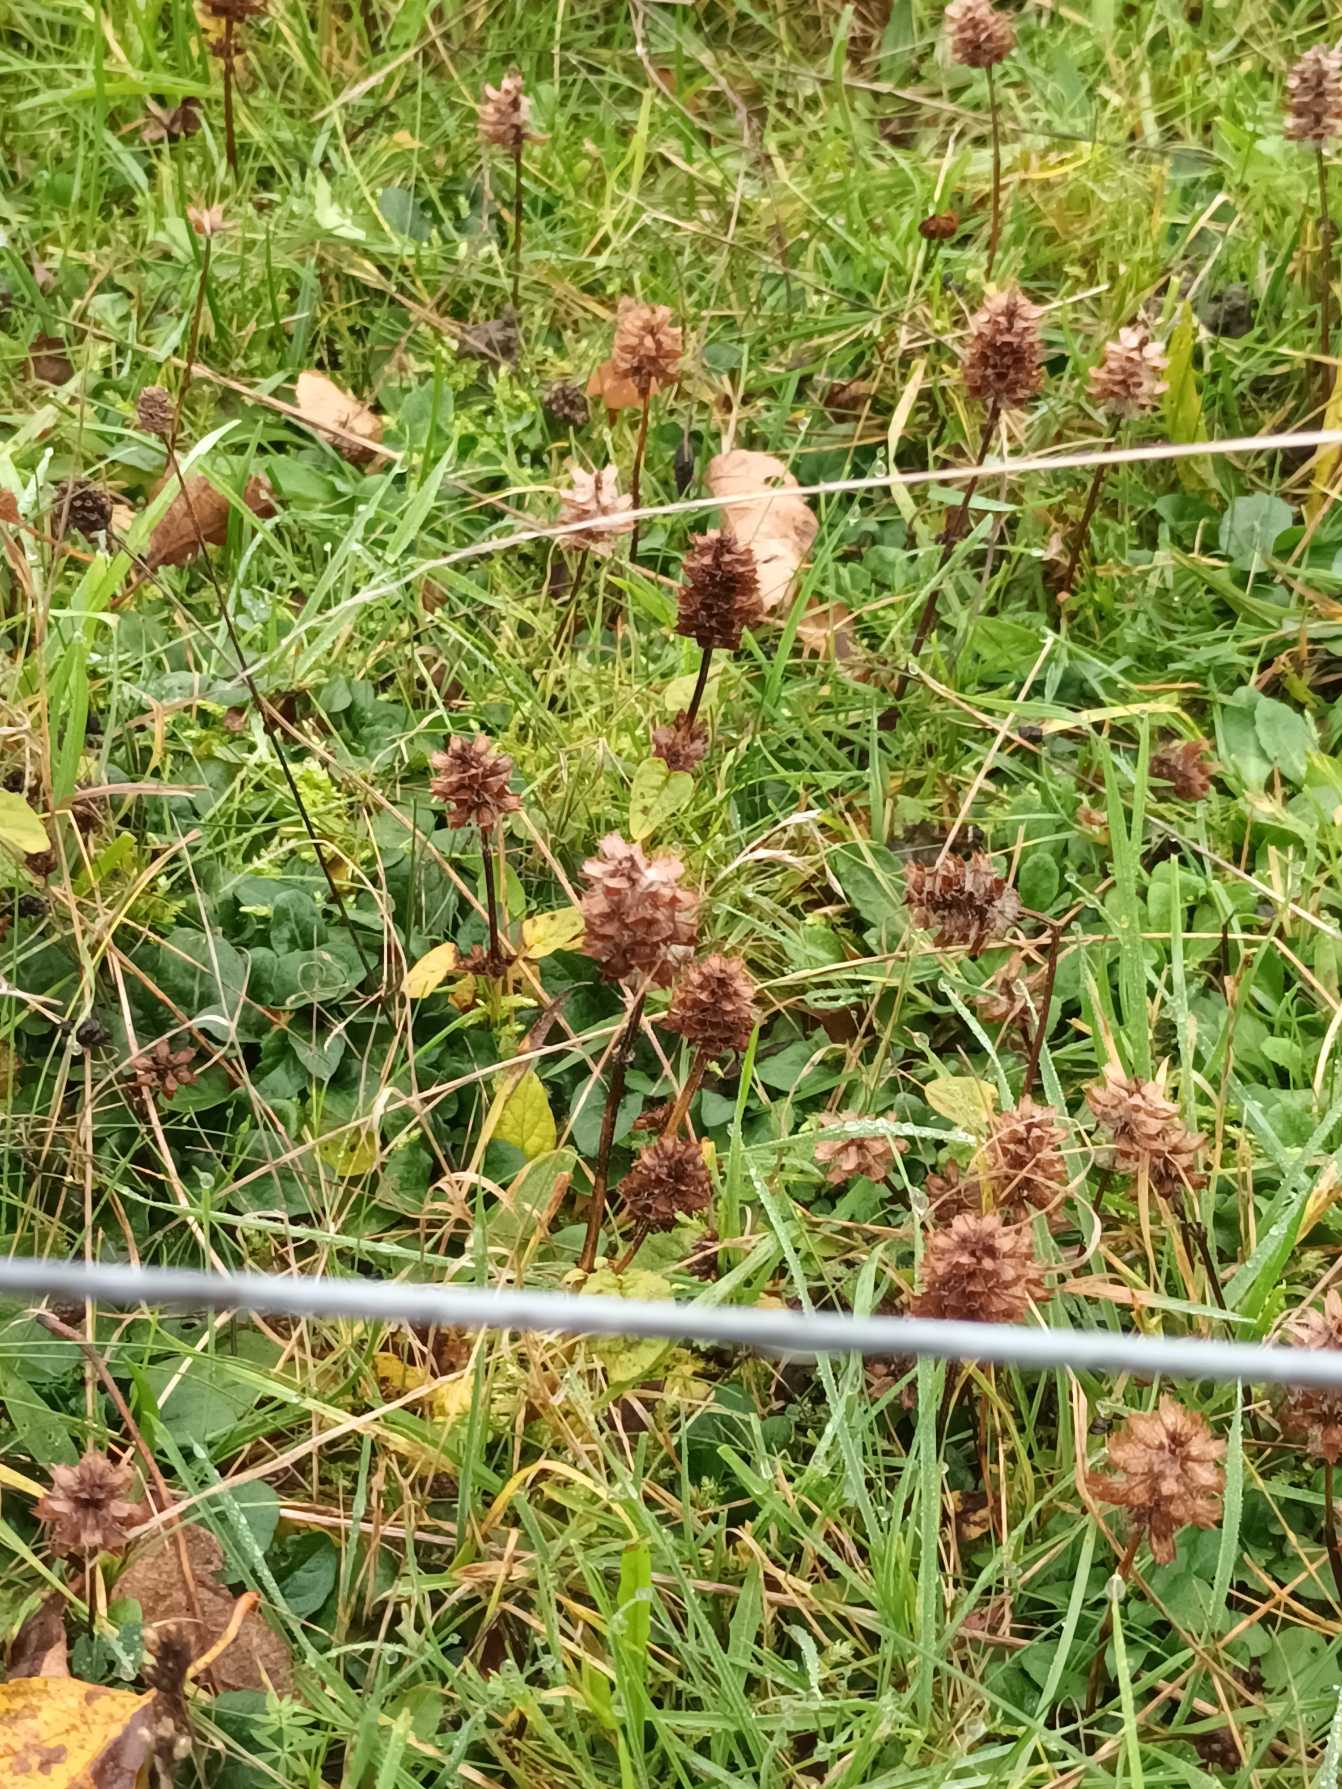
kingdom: Plantae
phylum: Tracheophyta
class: Magnoliopsida
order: Lamiales
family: Lamiaceae
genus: Prunella
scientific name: Prunella vulgaris
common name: Almindelig brunelle
